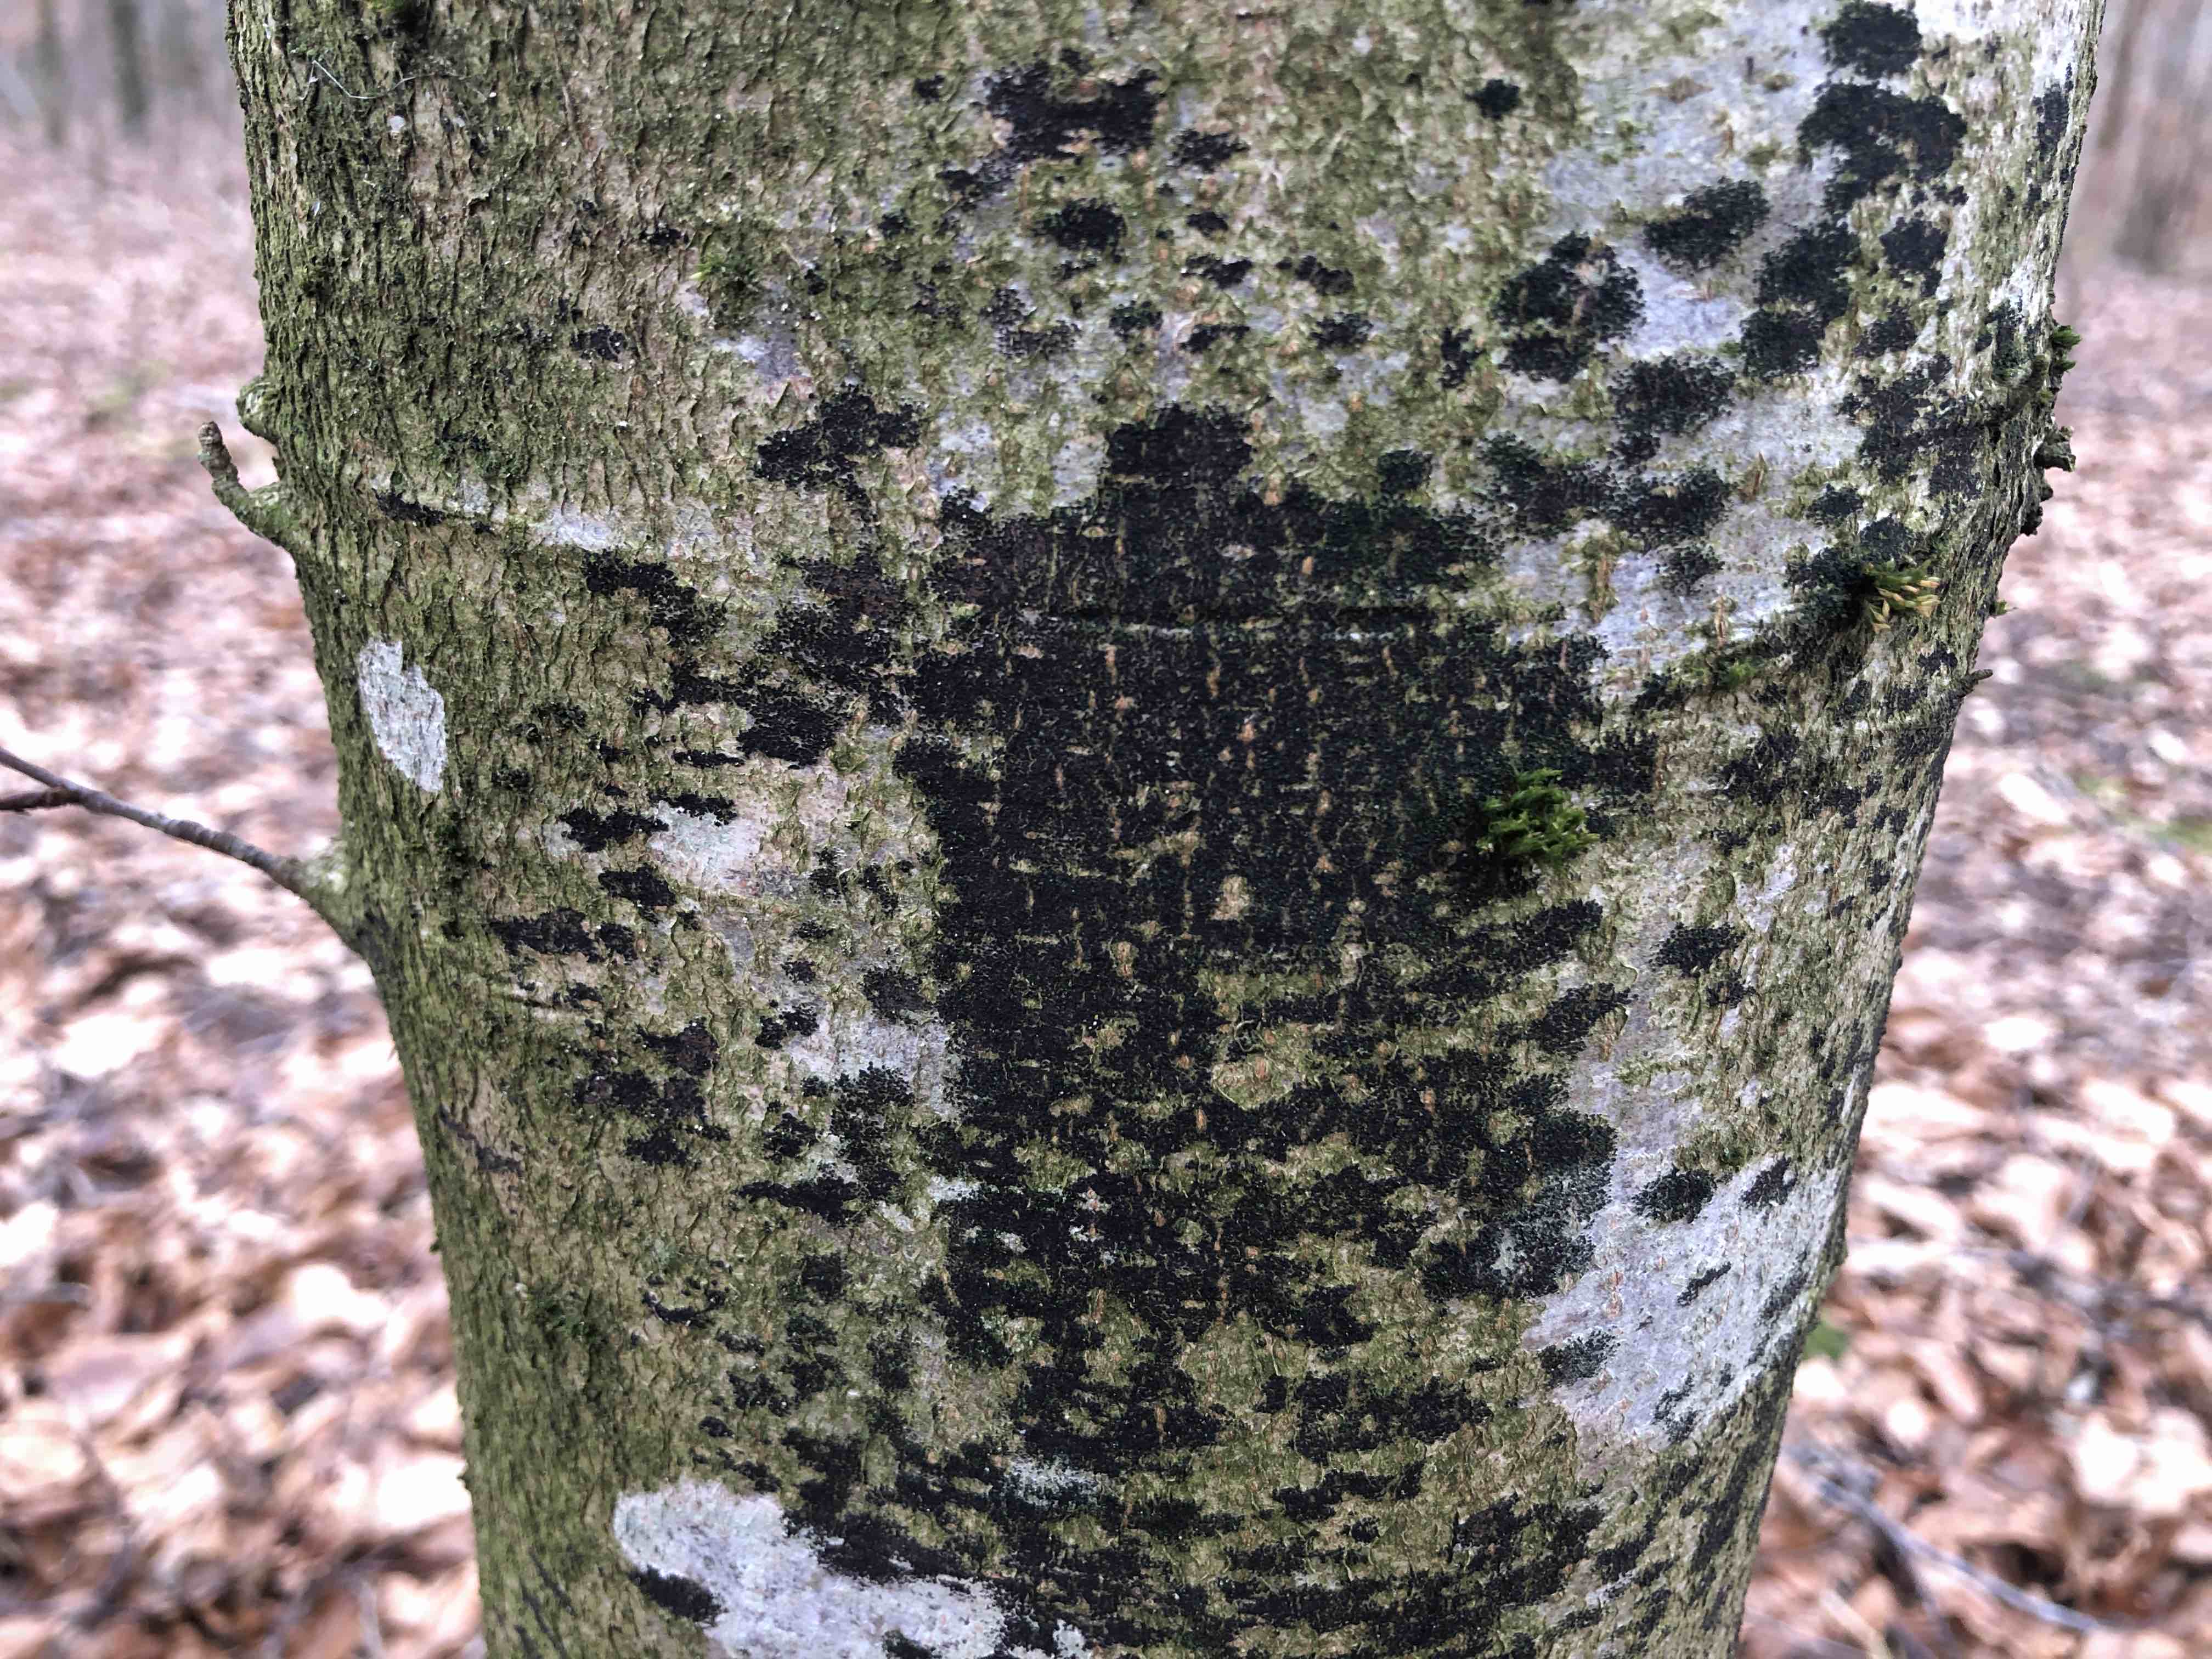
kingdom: Fungi
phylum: Ascomycota
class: Leotiomycetes
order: Rhytismatales
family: Ascodichaenaceae
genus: Ascodichaena
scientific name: Ascodichaena rugosa
